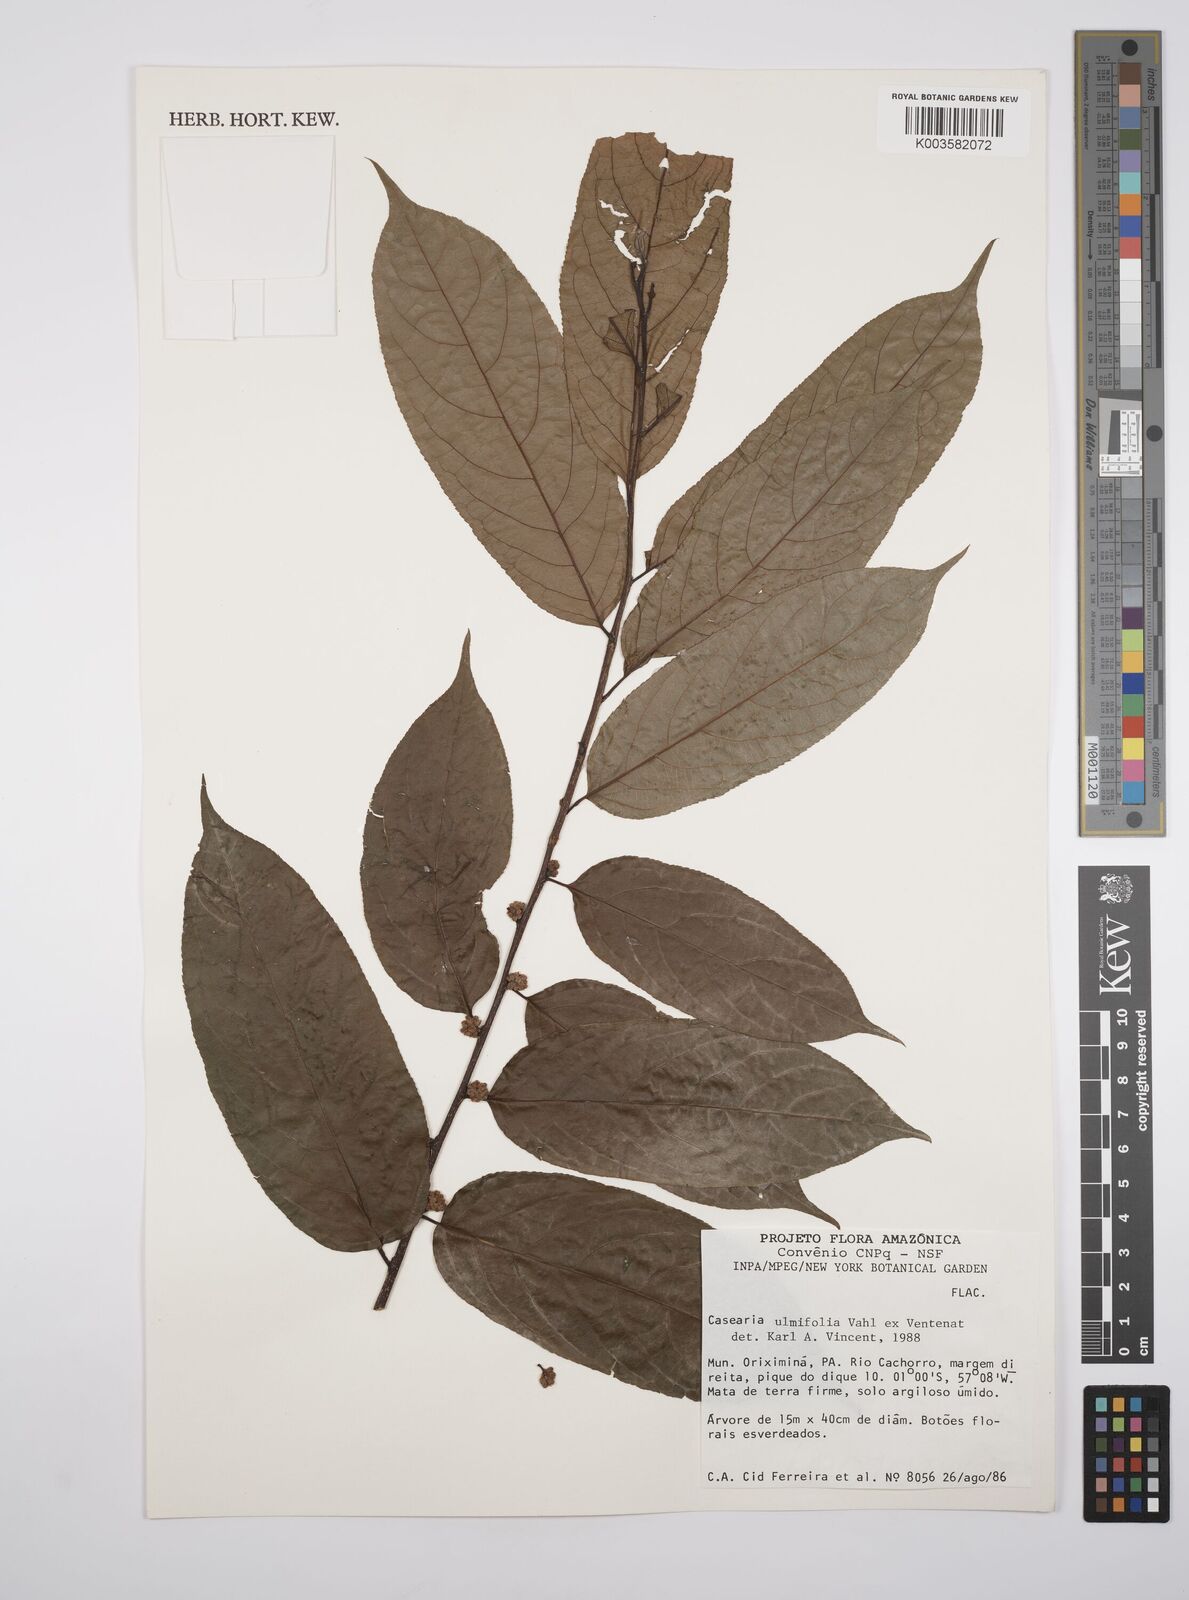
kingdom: Plantae
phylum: Tracheophyta
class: Magnoliopsida
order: Malpighiales
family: Salicaceae
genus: Casearia
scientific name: Casearia ulmifolia
